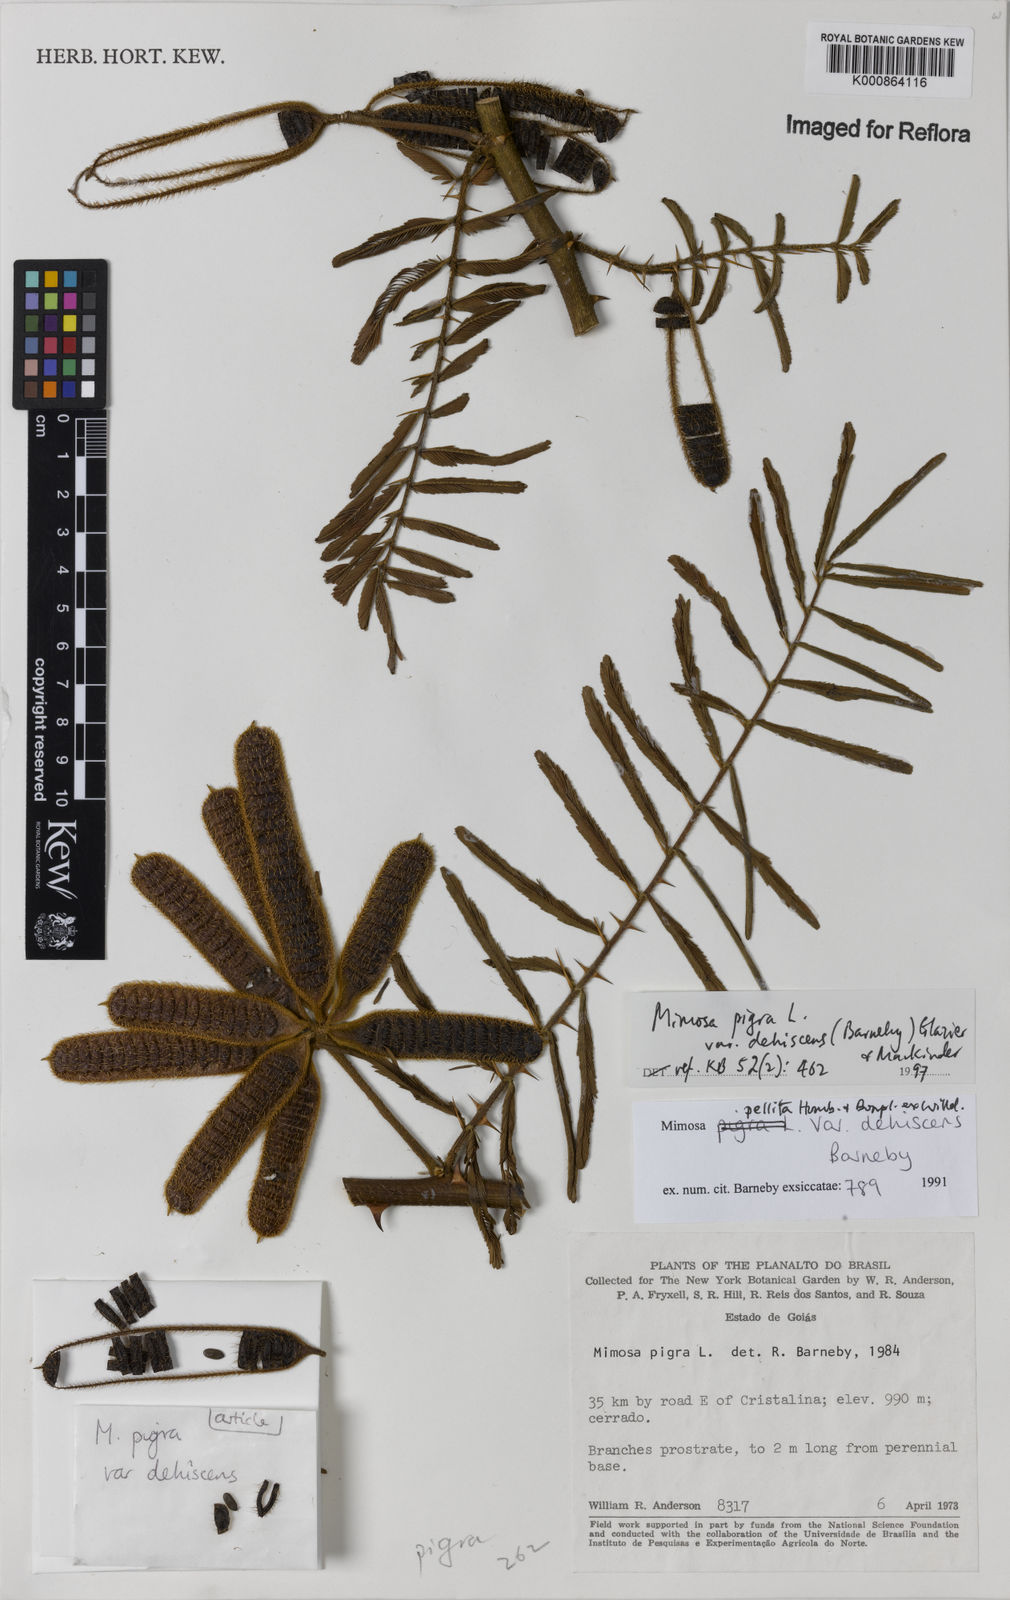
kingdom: Plantae
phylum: Tracheophyta
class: Magnoliopsida
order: Fabales
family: Fabaceae
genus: Mimosa
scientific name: Mimosa pigra
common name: Black mimosa
